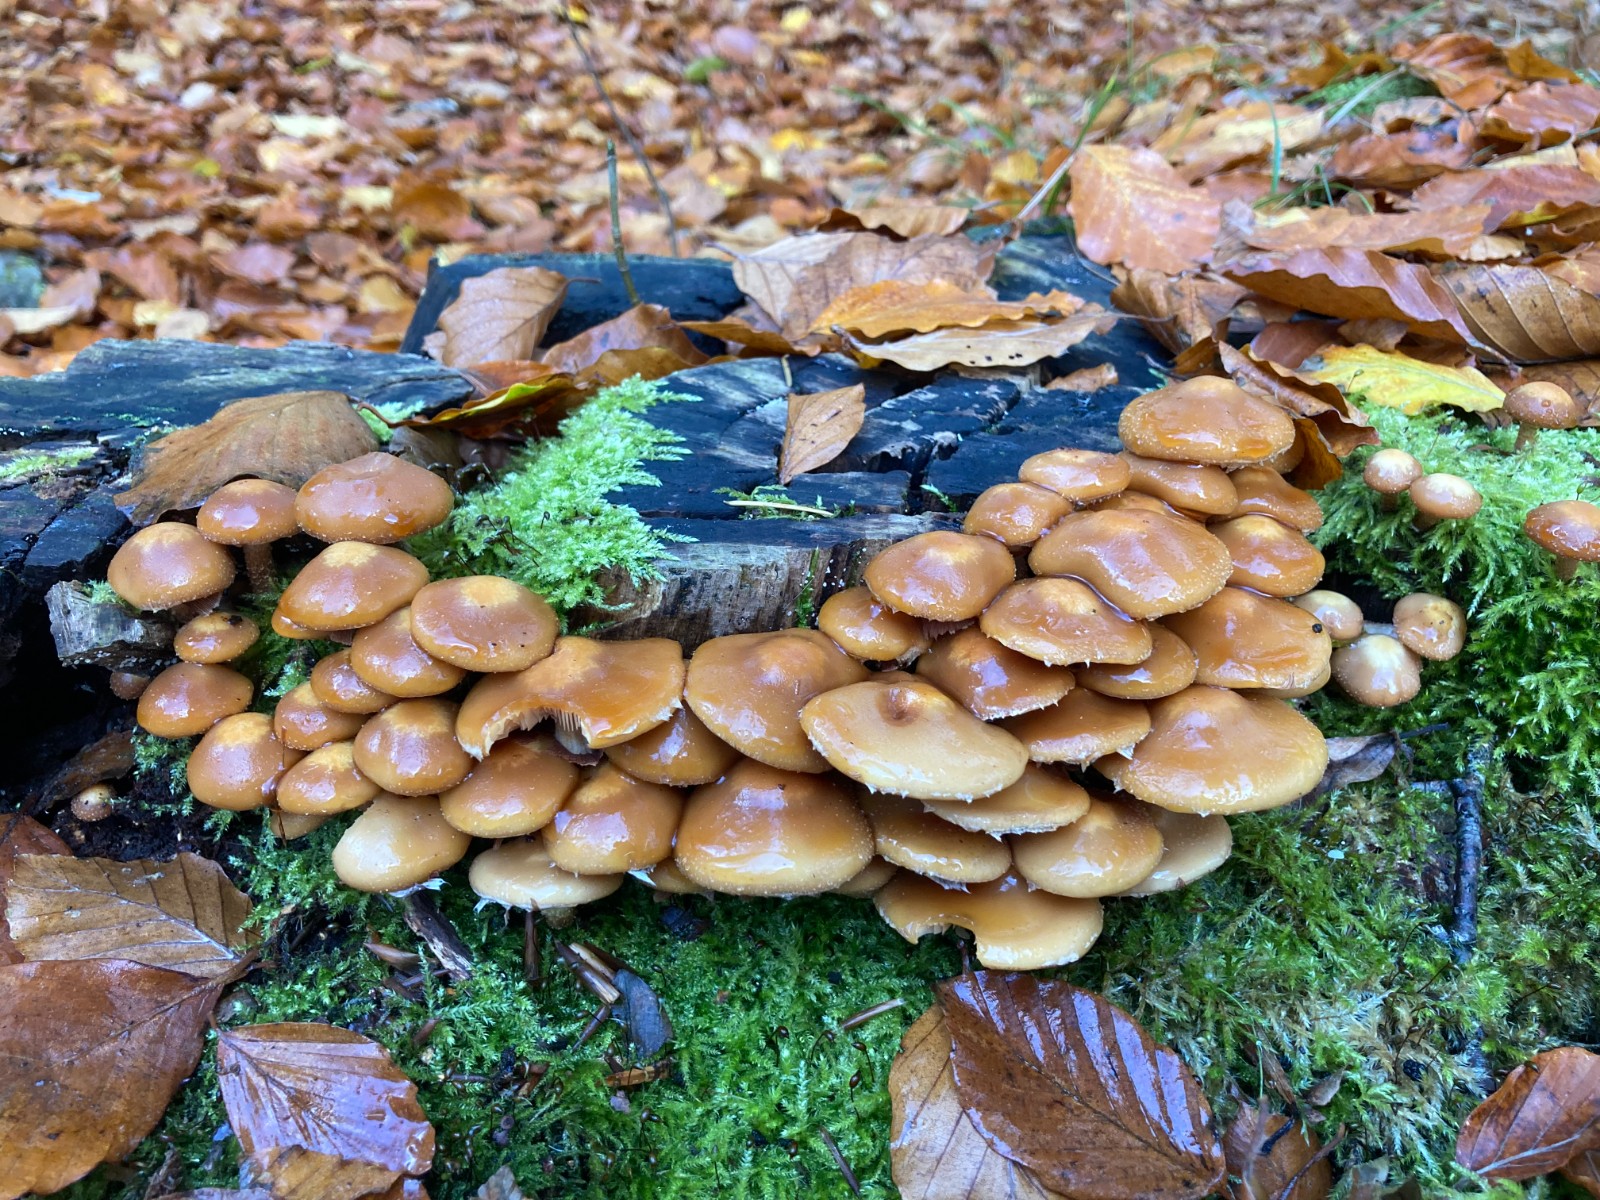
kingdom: Fungi
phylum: Basidiomycota
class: Agaricomycetes
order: Agaricales
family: Strophariaceae
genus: Kuehneromyces
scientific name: Kuehneromyces mutabilis
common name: foranderlig skælhat
